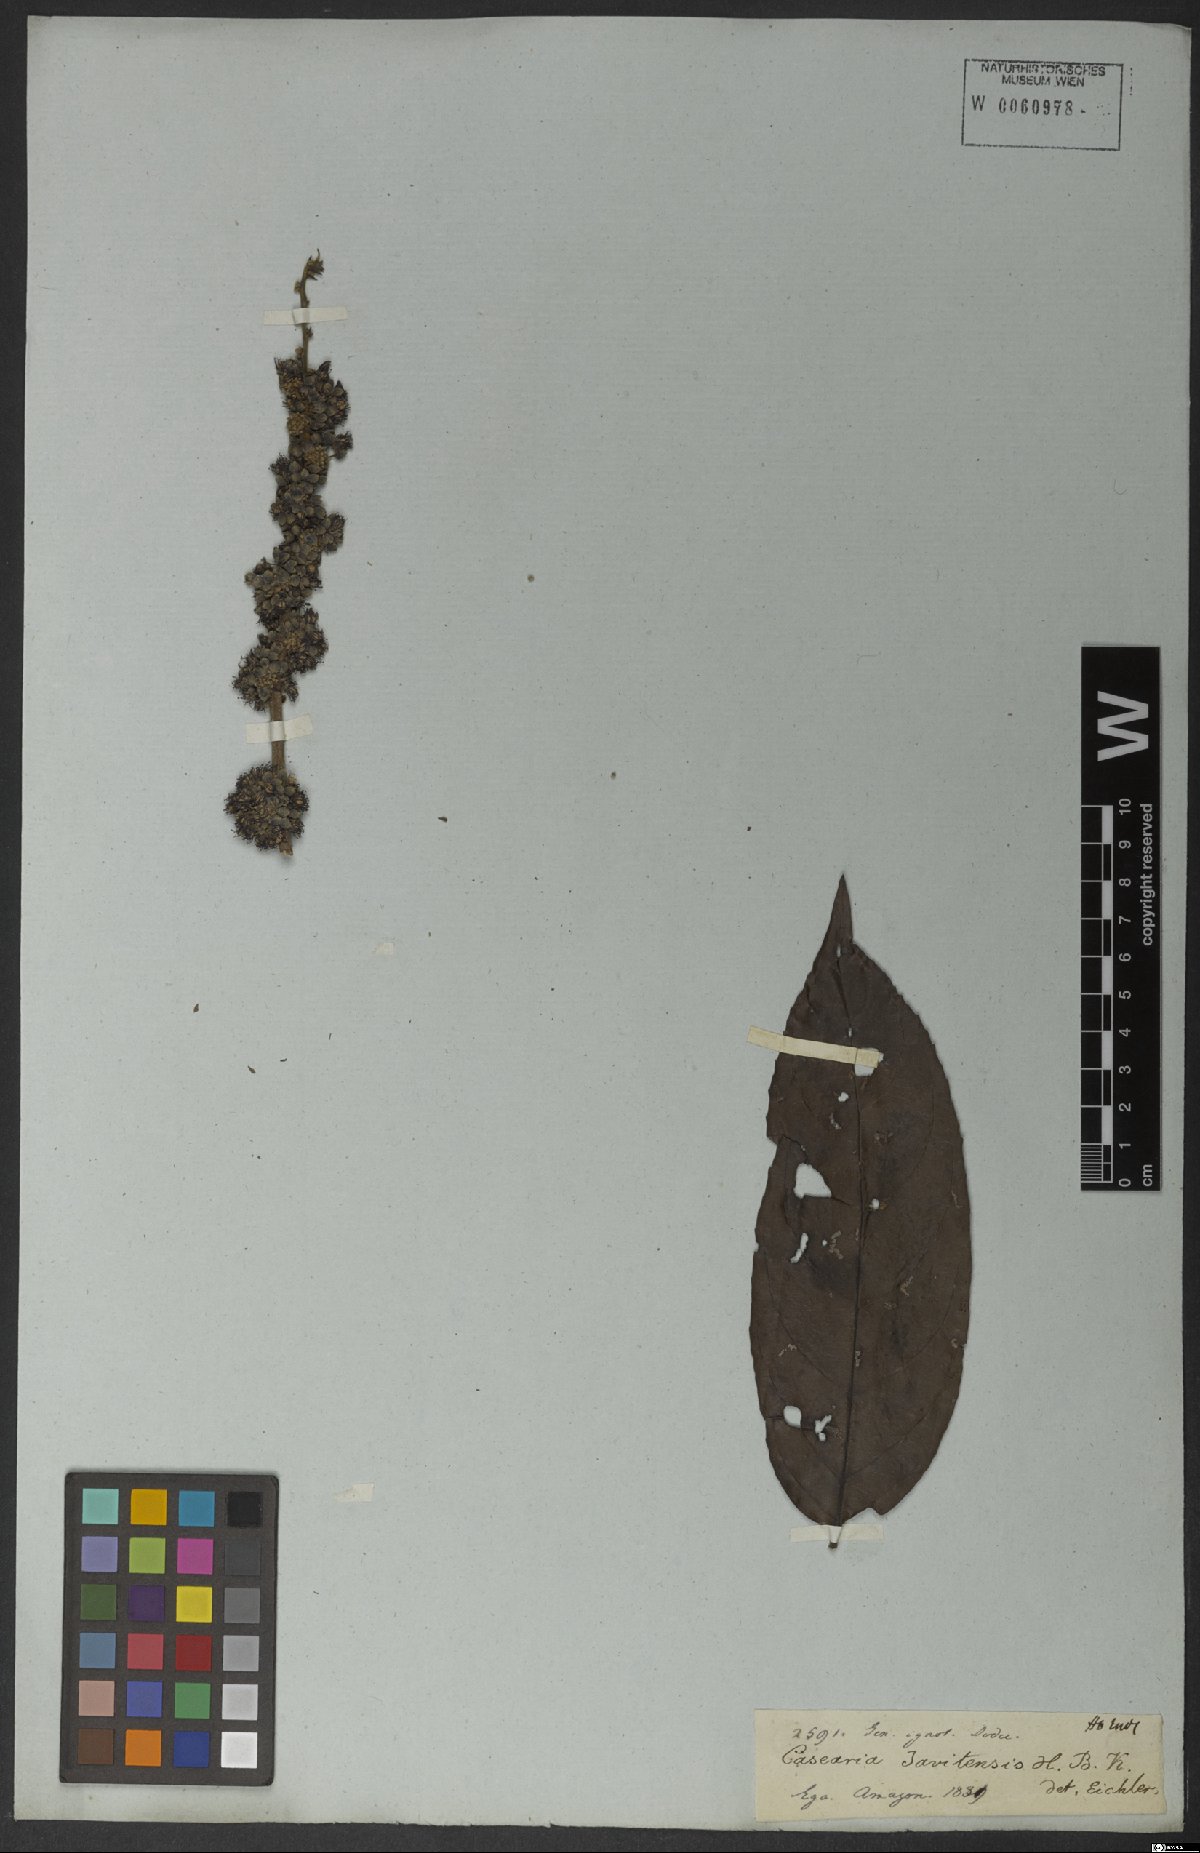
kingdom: Plantae
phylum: Tracheophyta
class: Magnoliopsida
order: Malpighiales
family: Salicaceae
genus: Piparea
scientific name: Piparea multiflora
